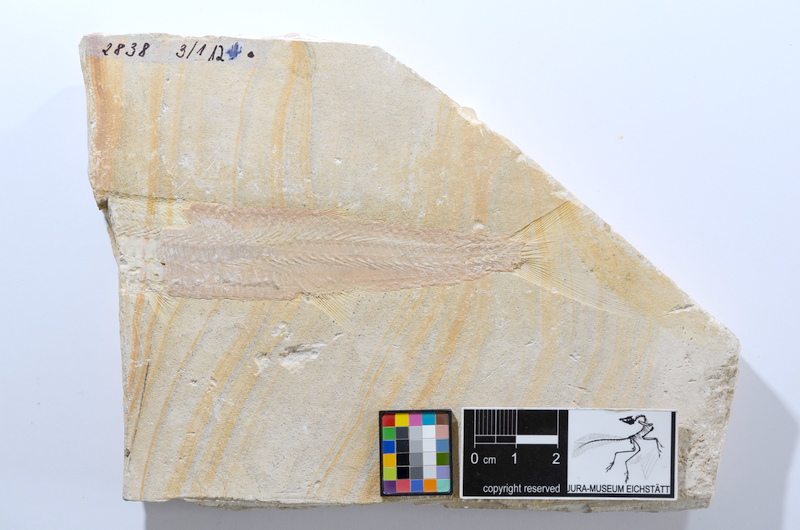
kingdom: Animalia
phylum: Chordata
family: Aspidorhynchidae
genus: Aspidorhynchus
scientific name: Aspidorhynchus acutirostris
